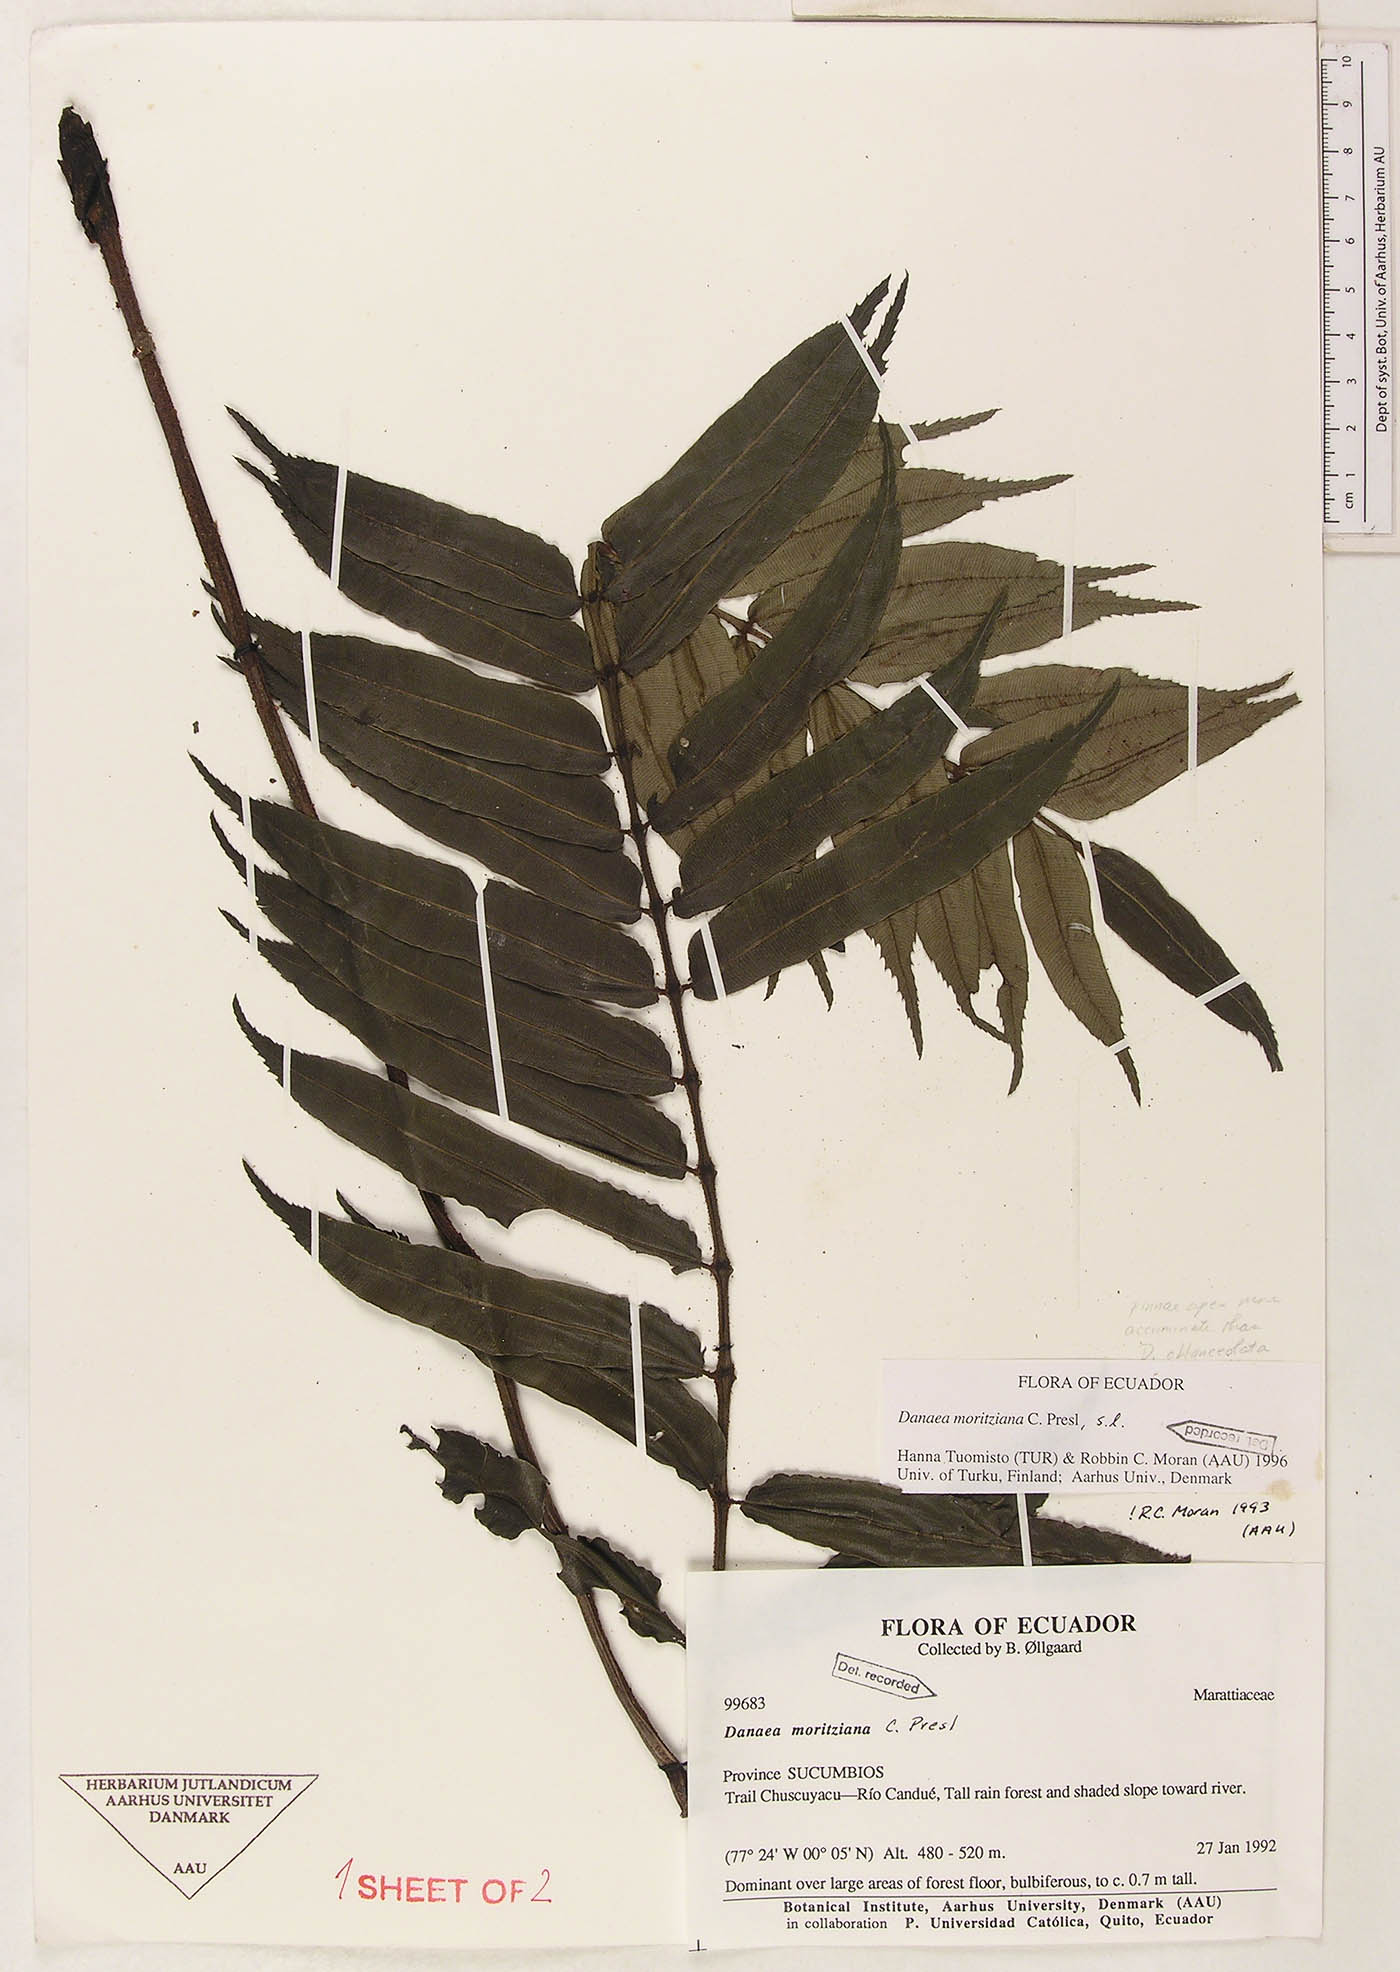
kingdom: Plantae
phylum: Tracheophyta
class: Polypodiopsida
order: Marattiales
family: Marattiaceae
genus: Danaea
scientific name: Danaea moritziana
